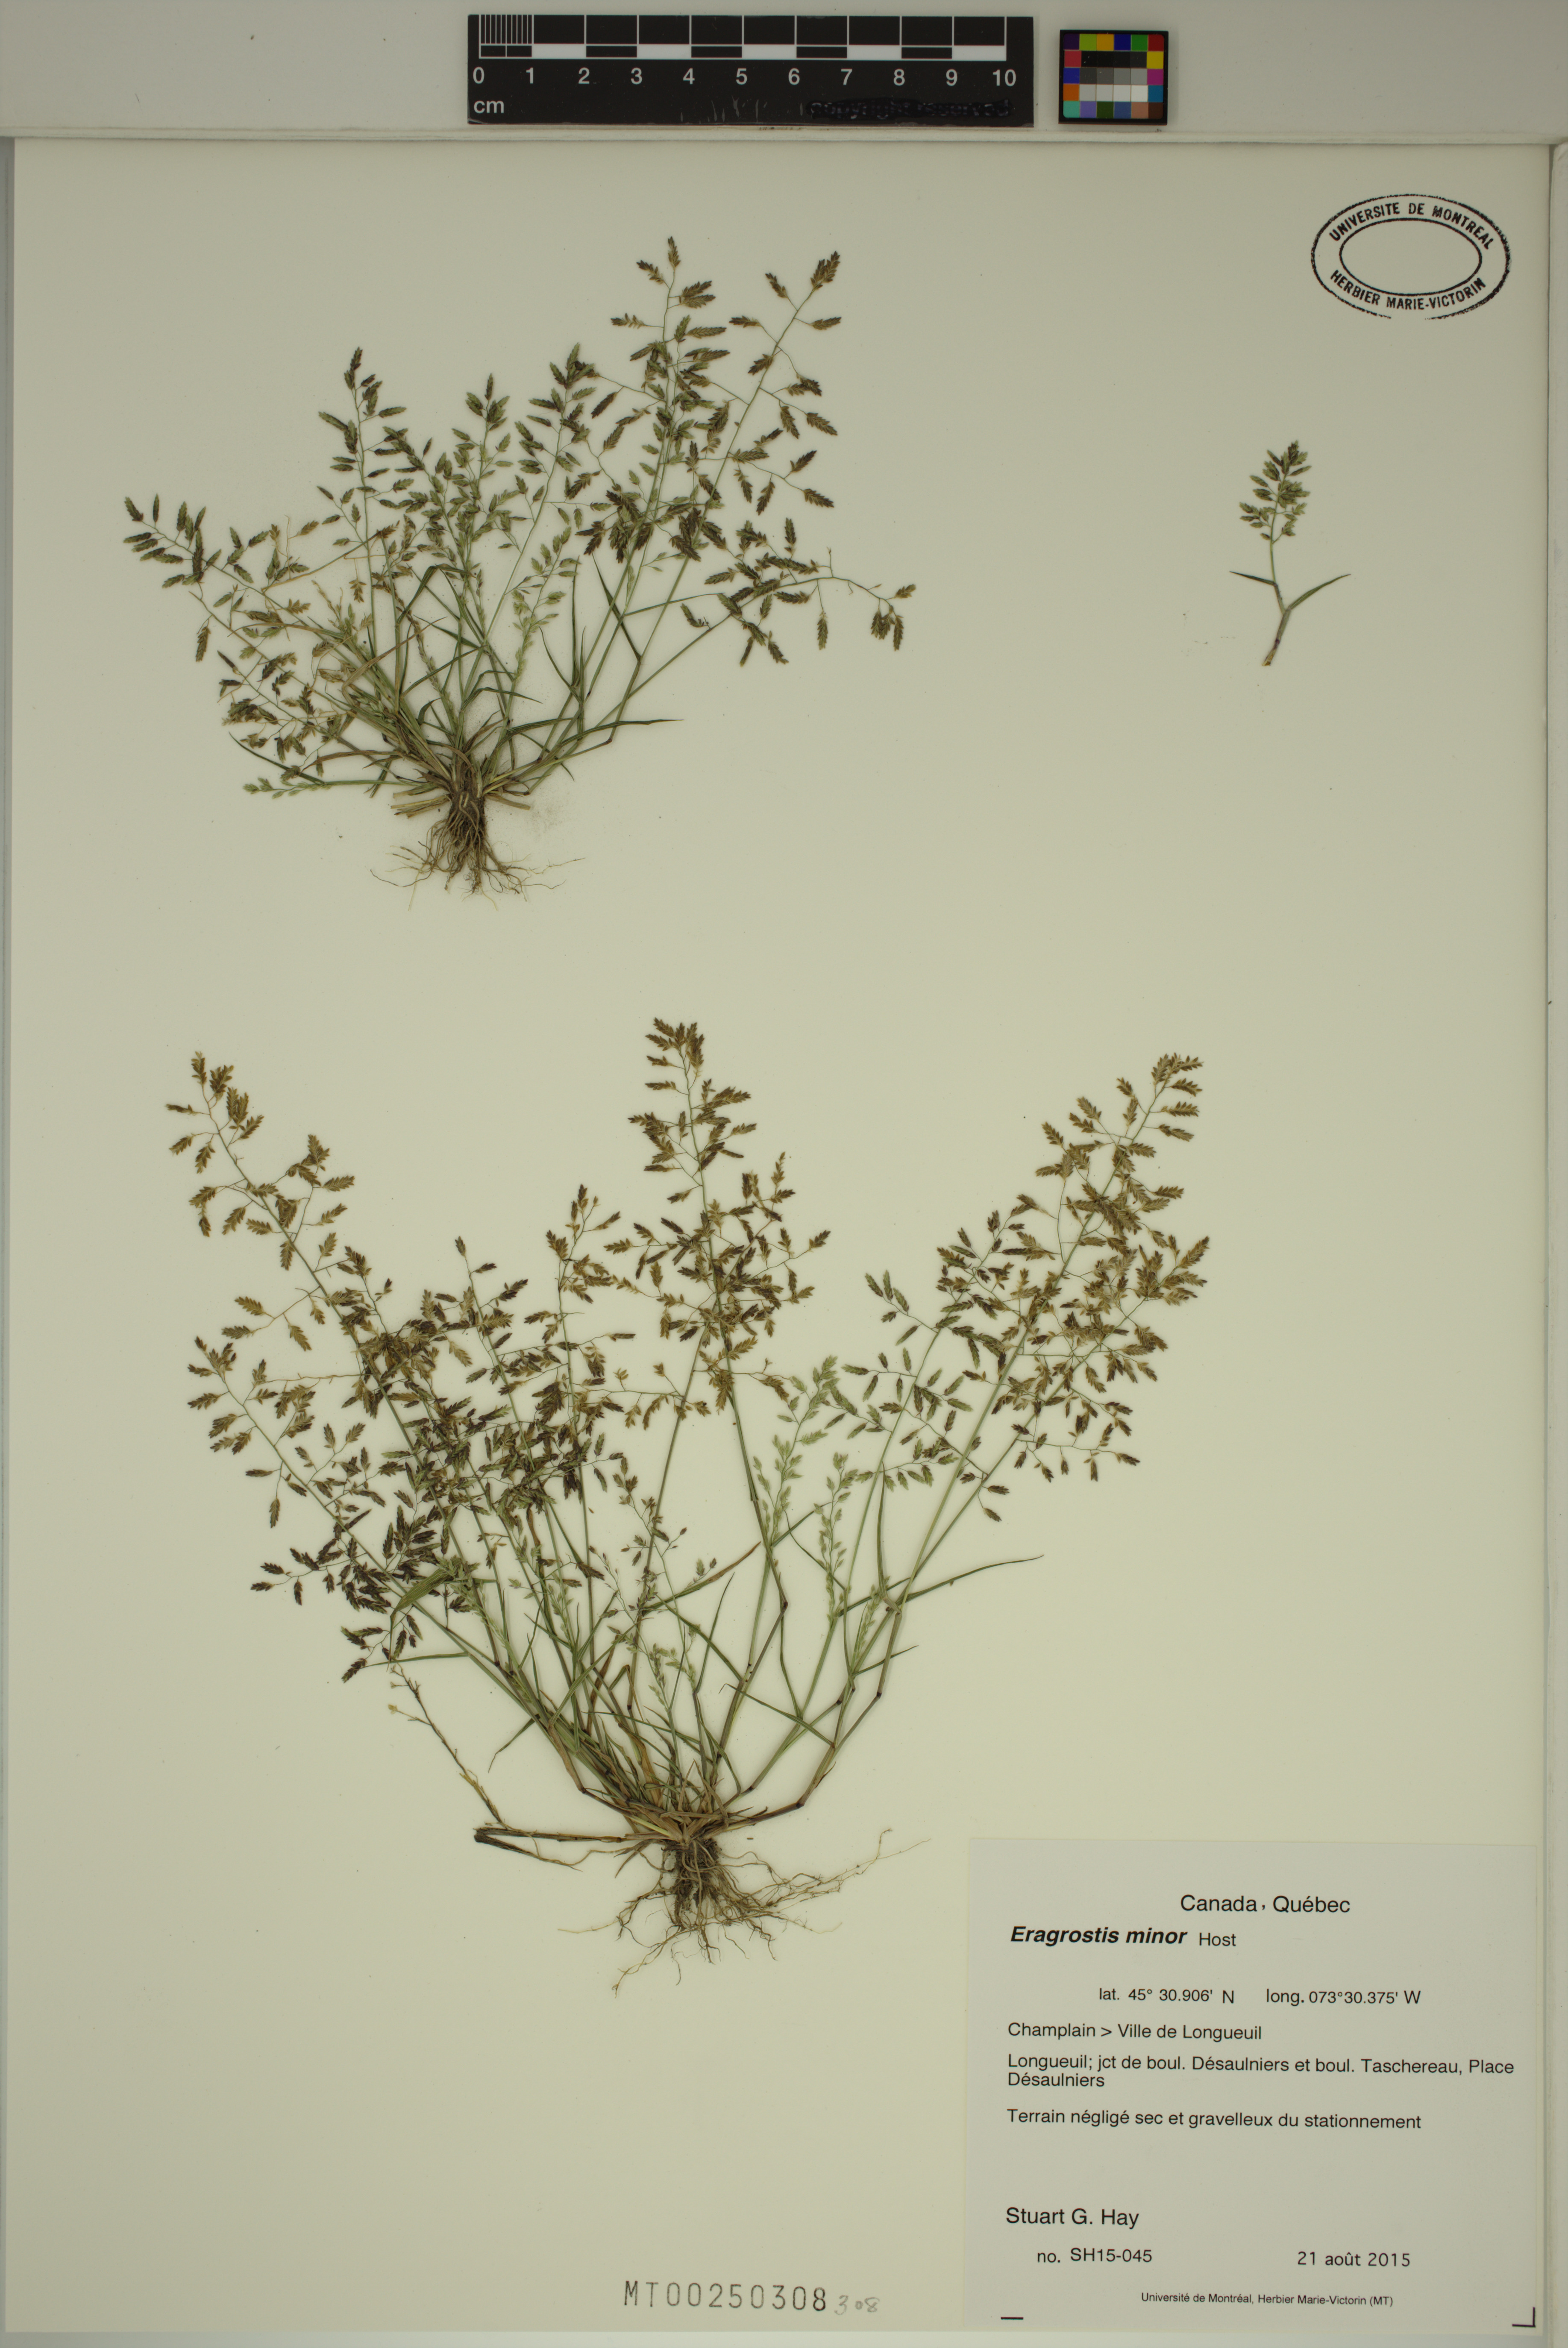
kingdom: Plantae
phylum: Tracheophyta
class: Liliopsida
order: Poales
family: Poaceae
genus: Eragrostis
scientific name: Eragrostis minor
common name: Small love-grass
